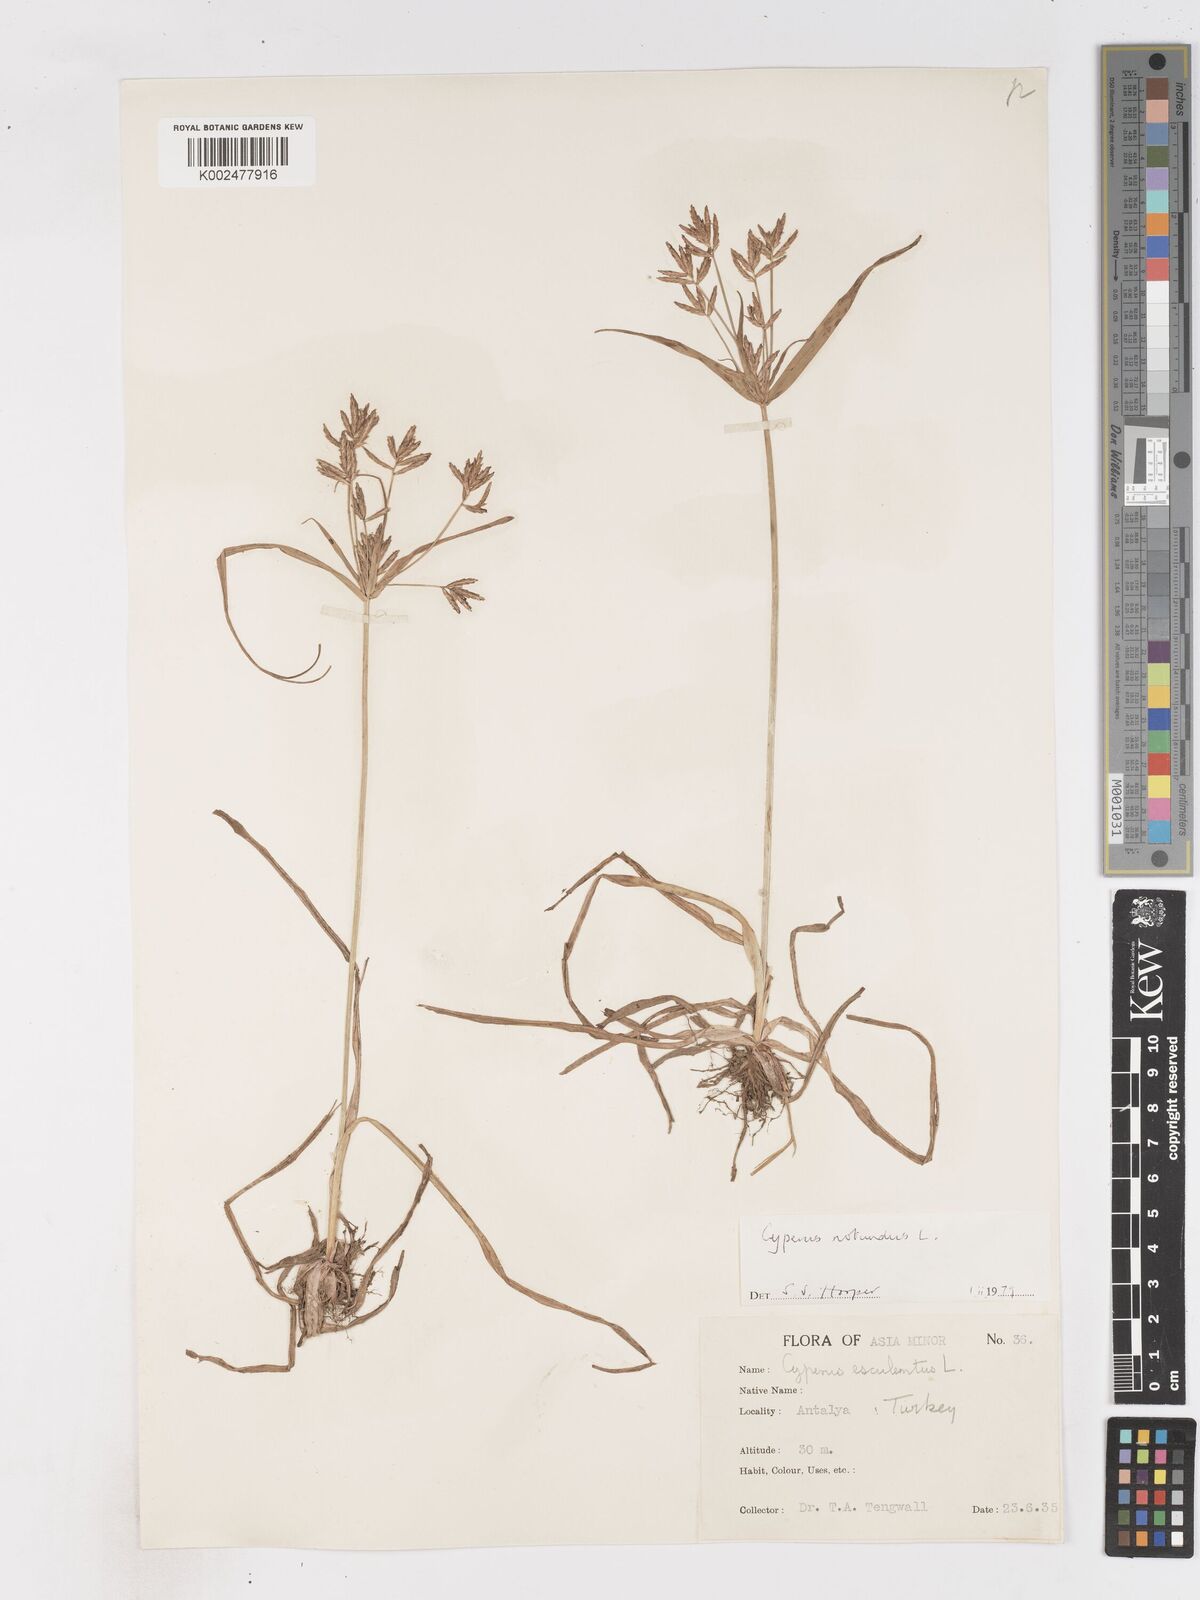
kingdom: Plantae
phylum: Tracheophyta
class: Liliopsida
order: Poales
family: Cyperaceae
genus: Cyperus
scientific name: Cyperus rotundus
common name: Nutgrass
